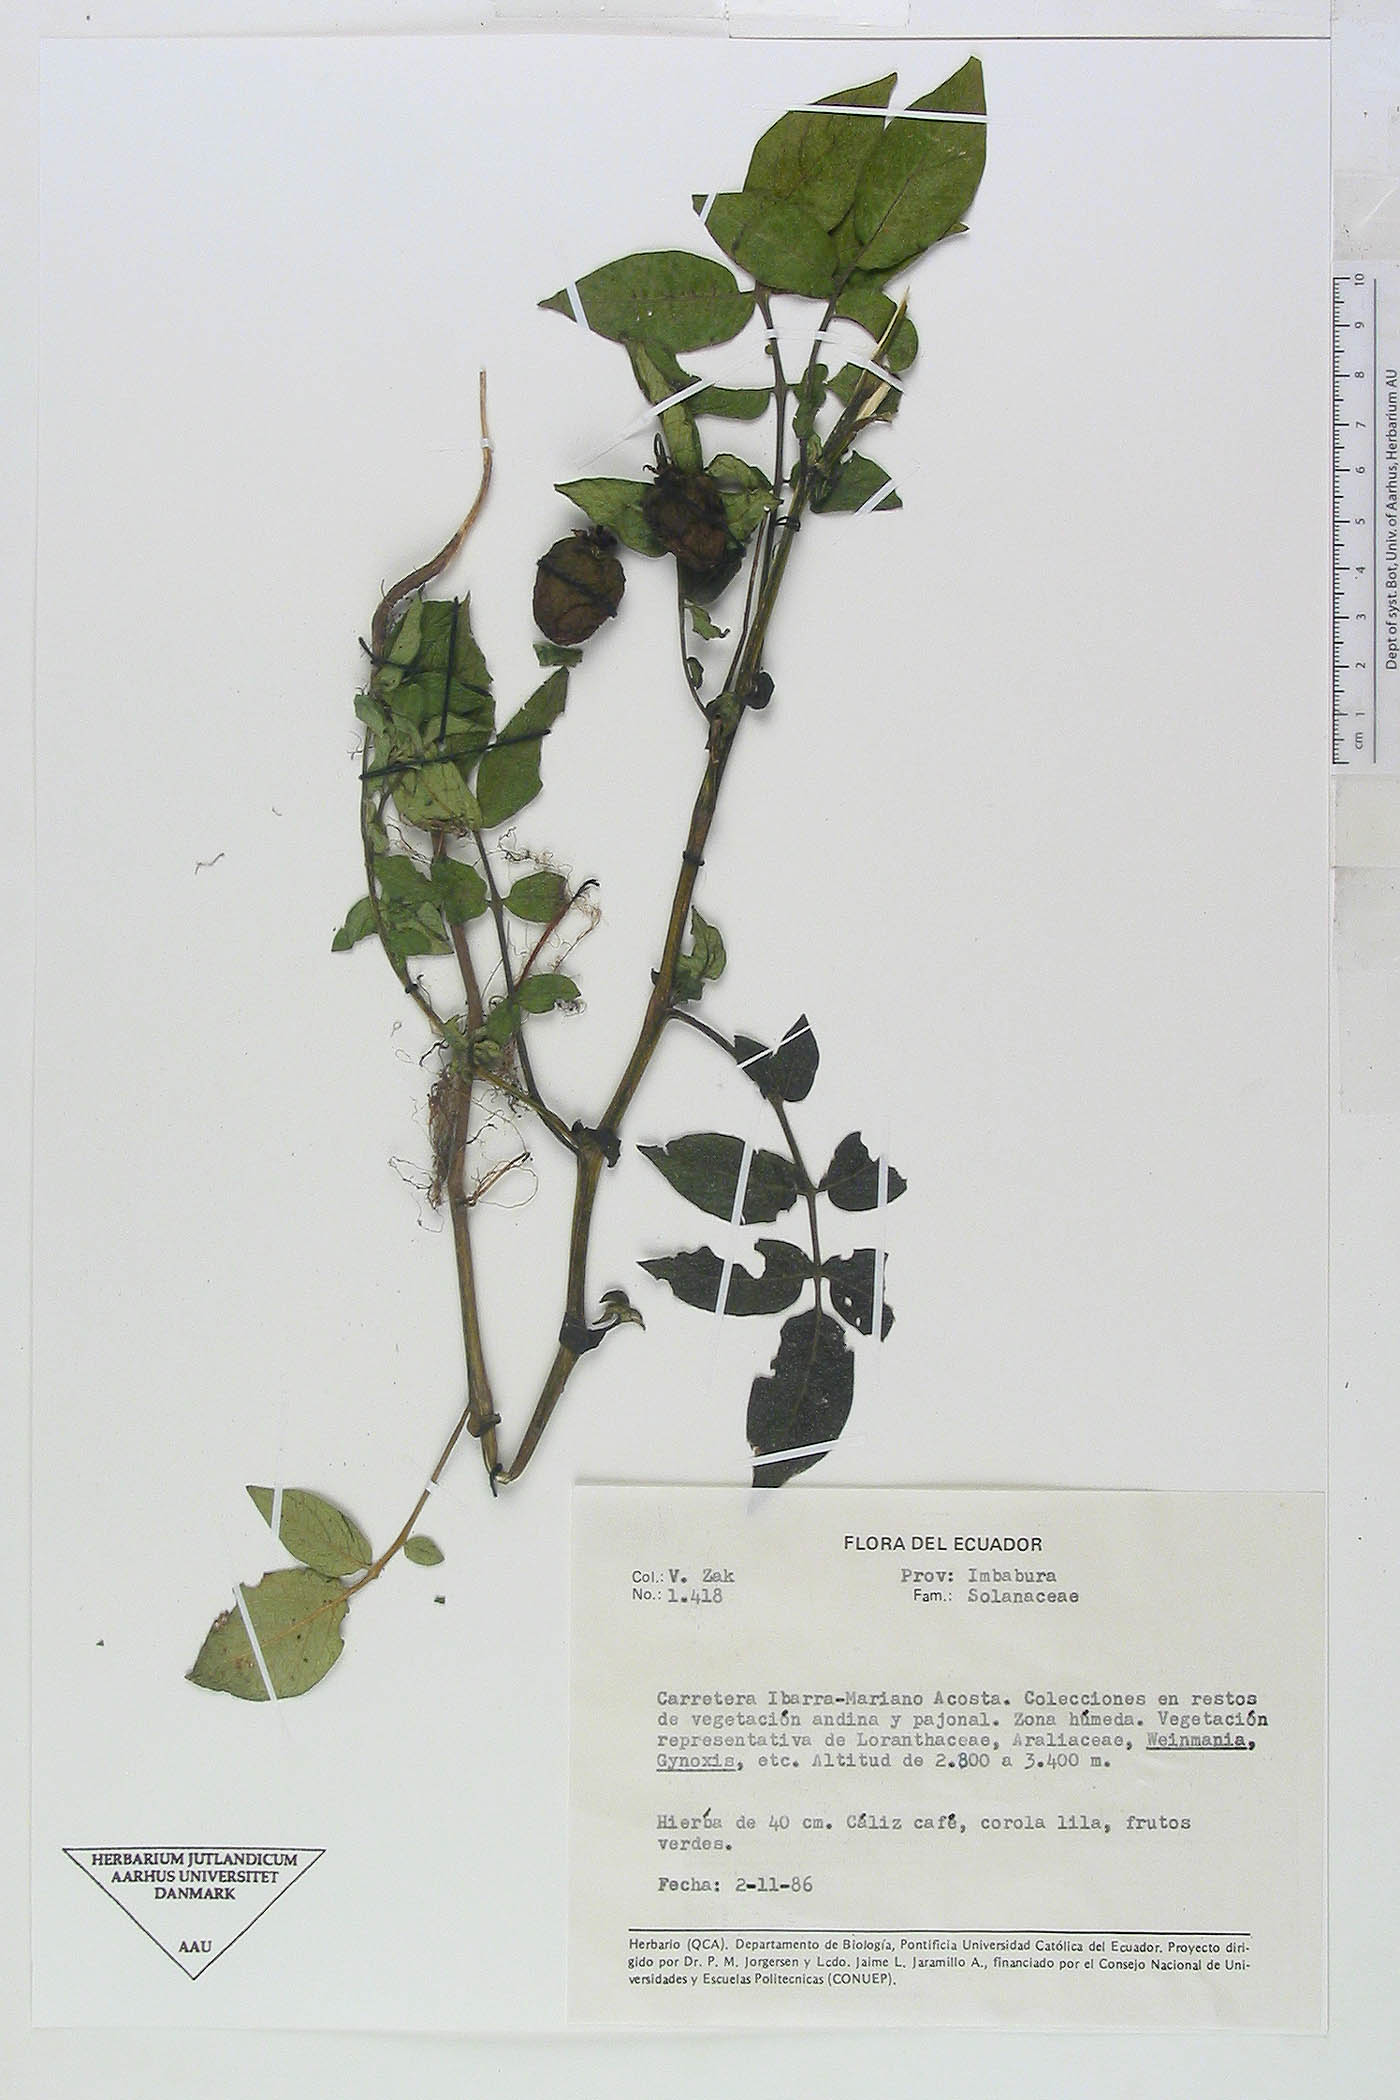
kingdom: Plantae
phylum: Tracheophyta
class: Magnoliopsida
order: Solanales
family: Solanaceae
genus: Solanum
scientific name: Solanum andreanum
